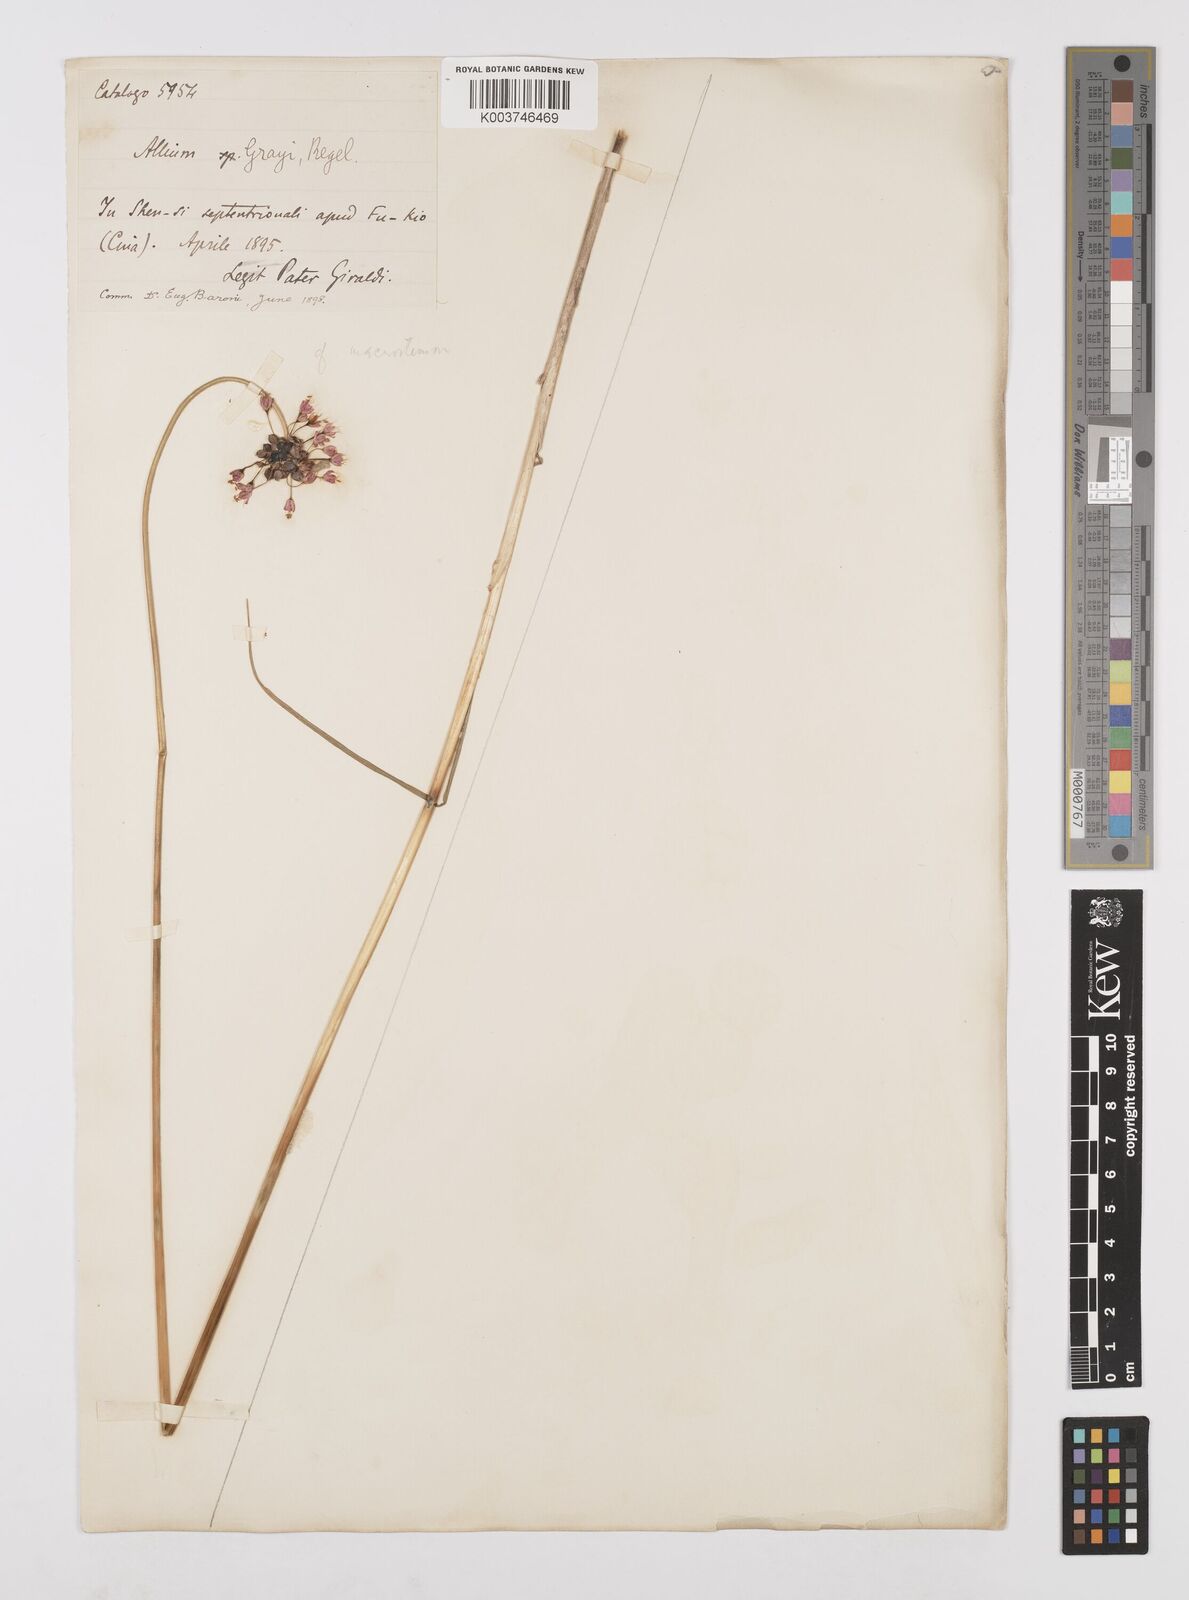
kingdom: Plantae
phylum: Tracheophyta
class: Liliopsida
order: Asparagales
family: Amaryllidaceae
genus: Allium
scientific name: Allium macrostemon
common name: Chinese garlic
